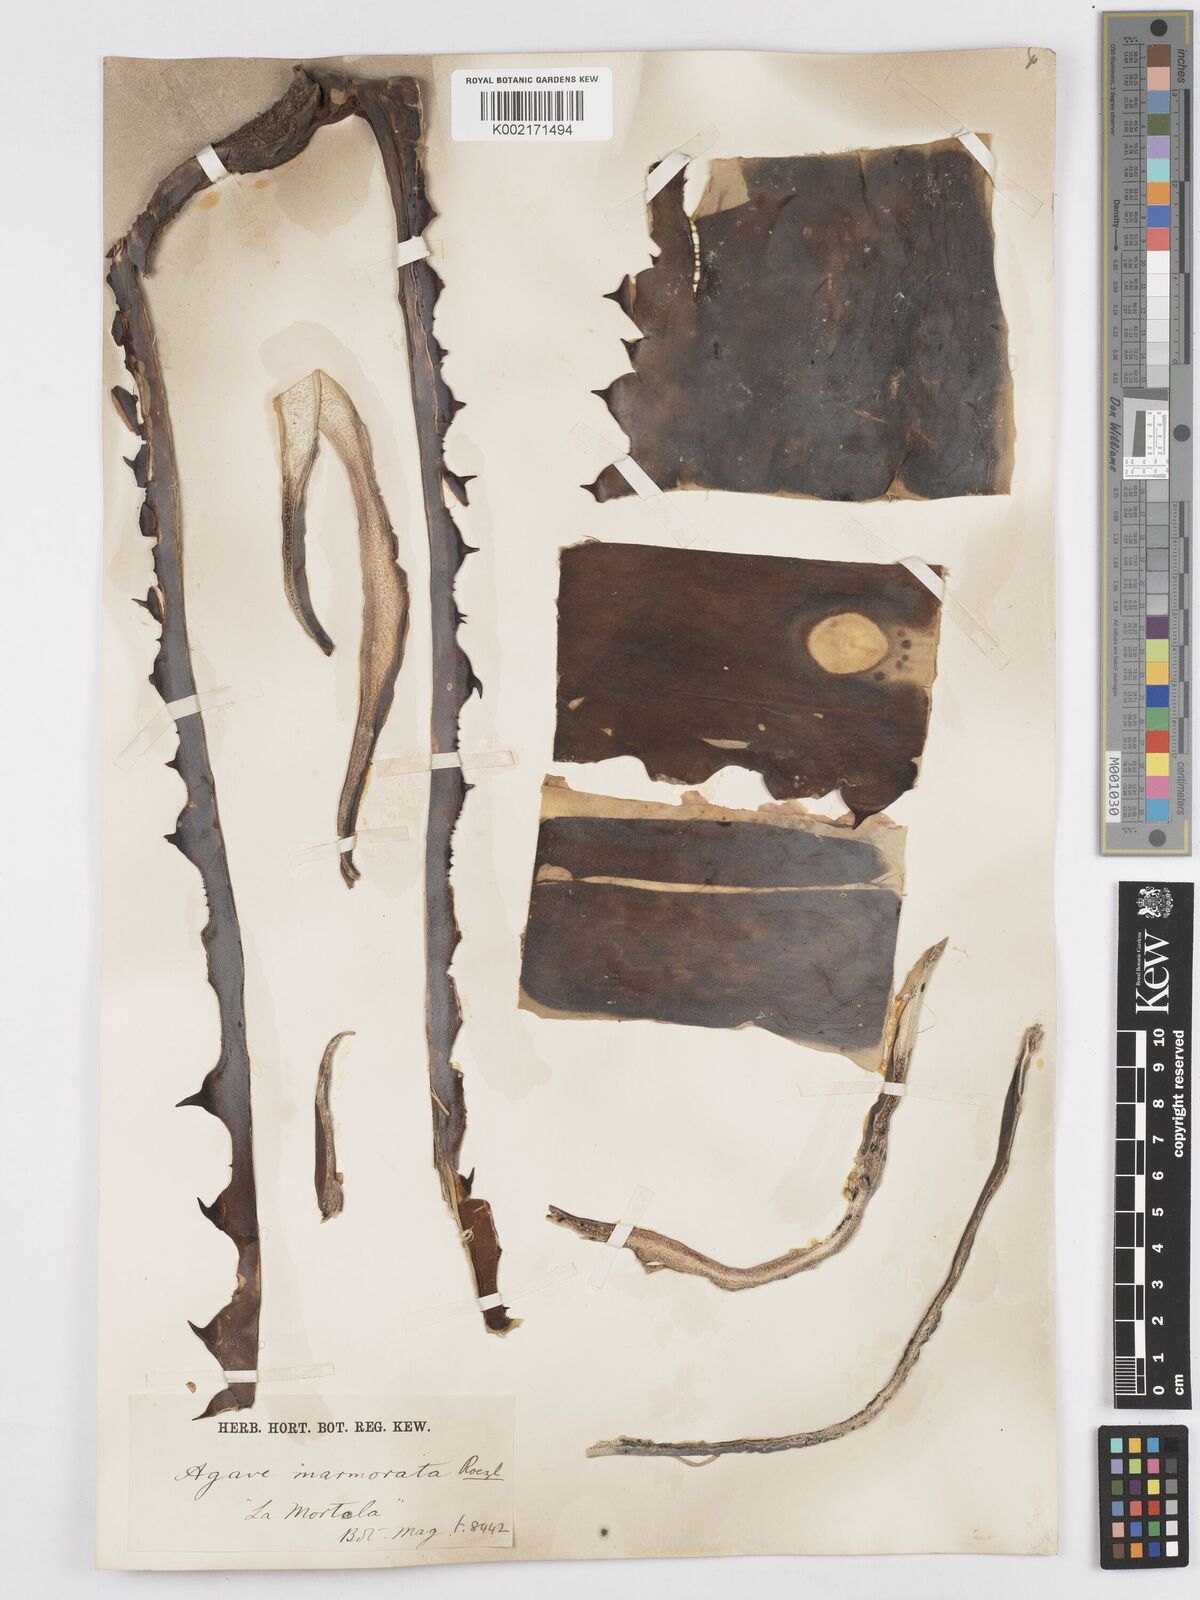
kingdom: Plantae
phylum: Tracheophyta
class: Liliopsida
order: Asparagales
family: Asparagaceae
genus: Agave
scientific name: Agave marmorata
